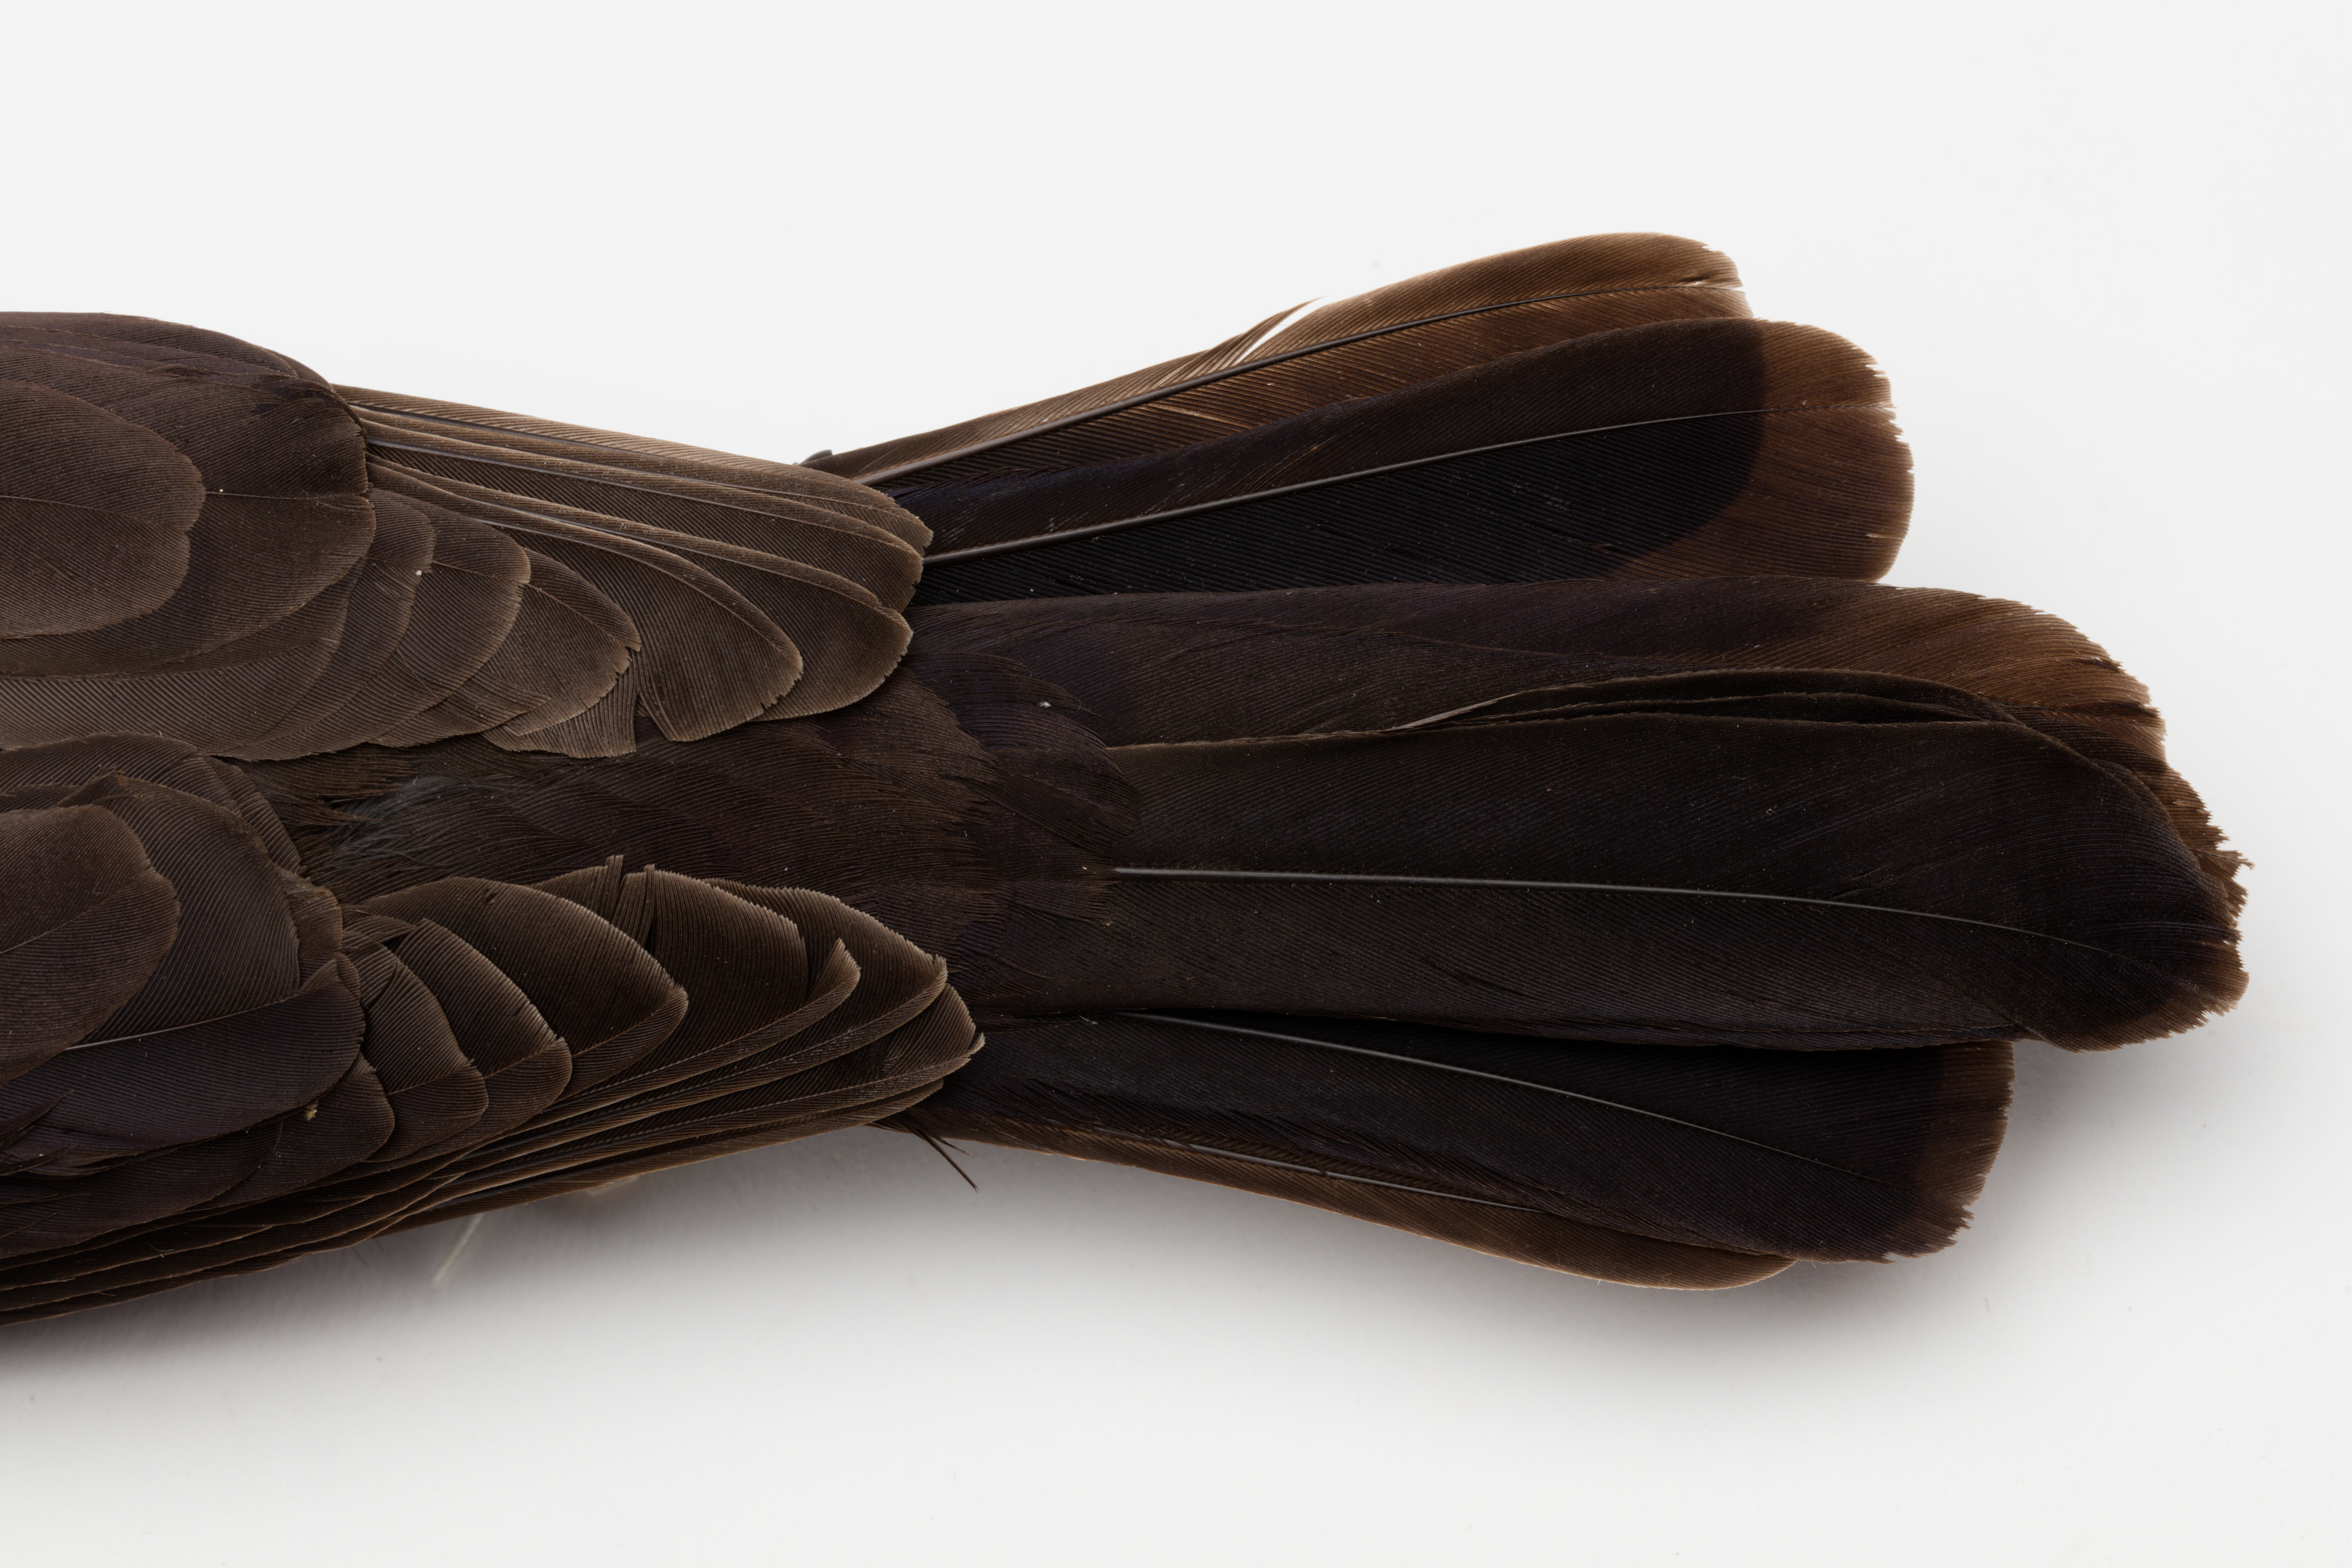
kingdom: Animalia
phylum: Chordata
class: Aves
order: Passeriformes
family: Icteridae
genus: Quiscalus
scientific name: Quiscalus quiscula
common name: Common grackle
